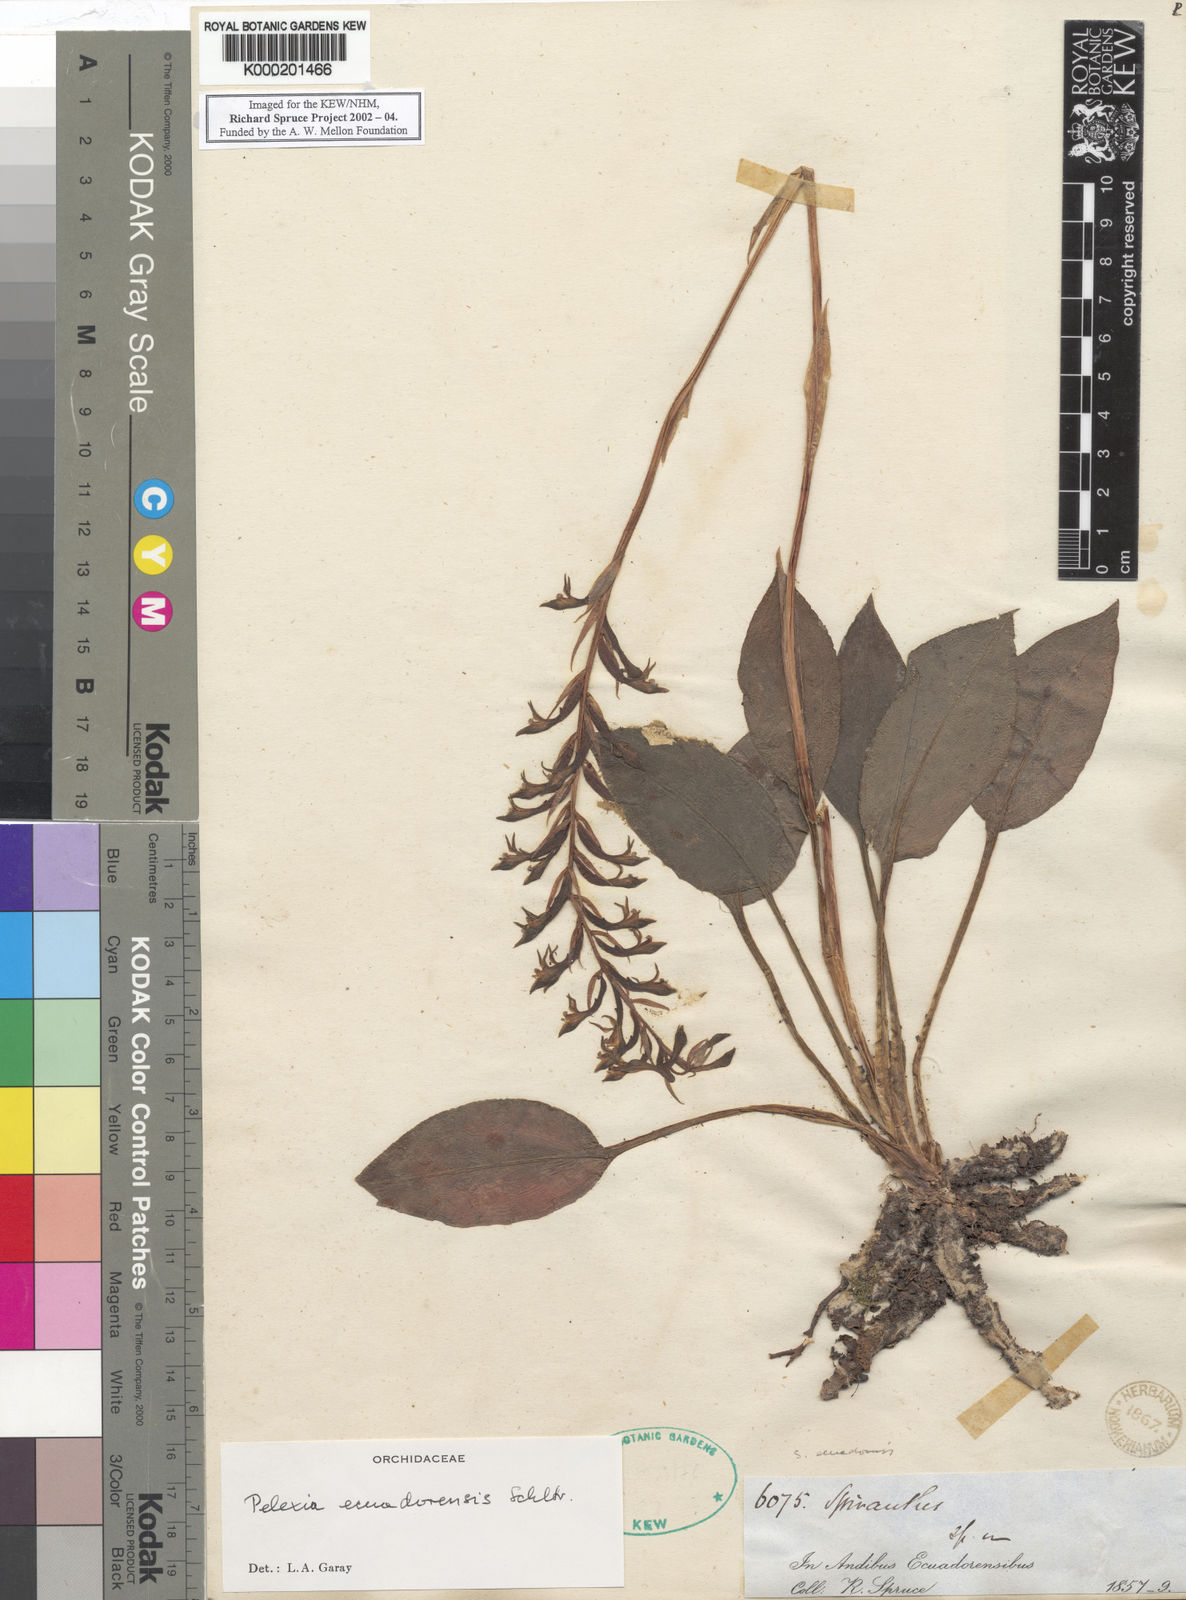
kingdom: Plantae
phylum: Tracheophyta
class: Liliopsida
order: Asparagales
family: Orchidaceae
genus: Pelexia
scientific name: Pelexia ecuadorensis
